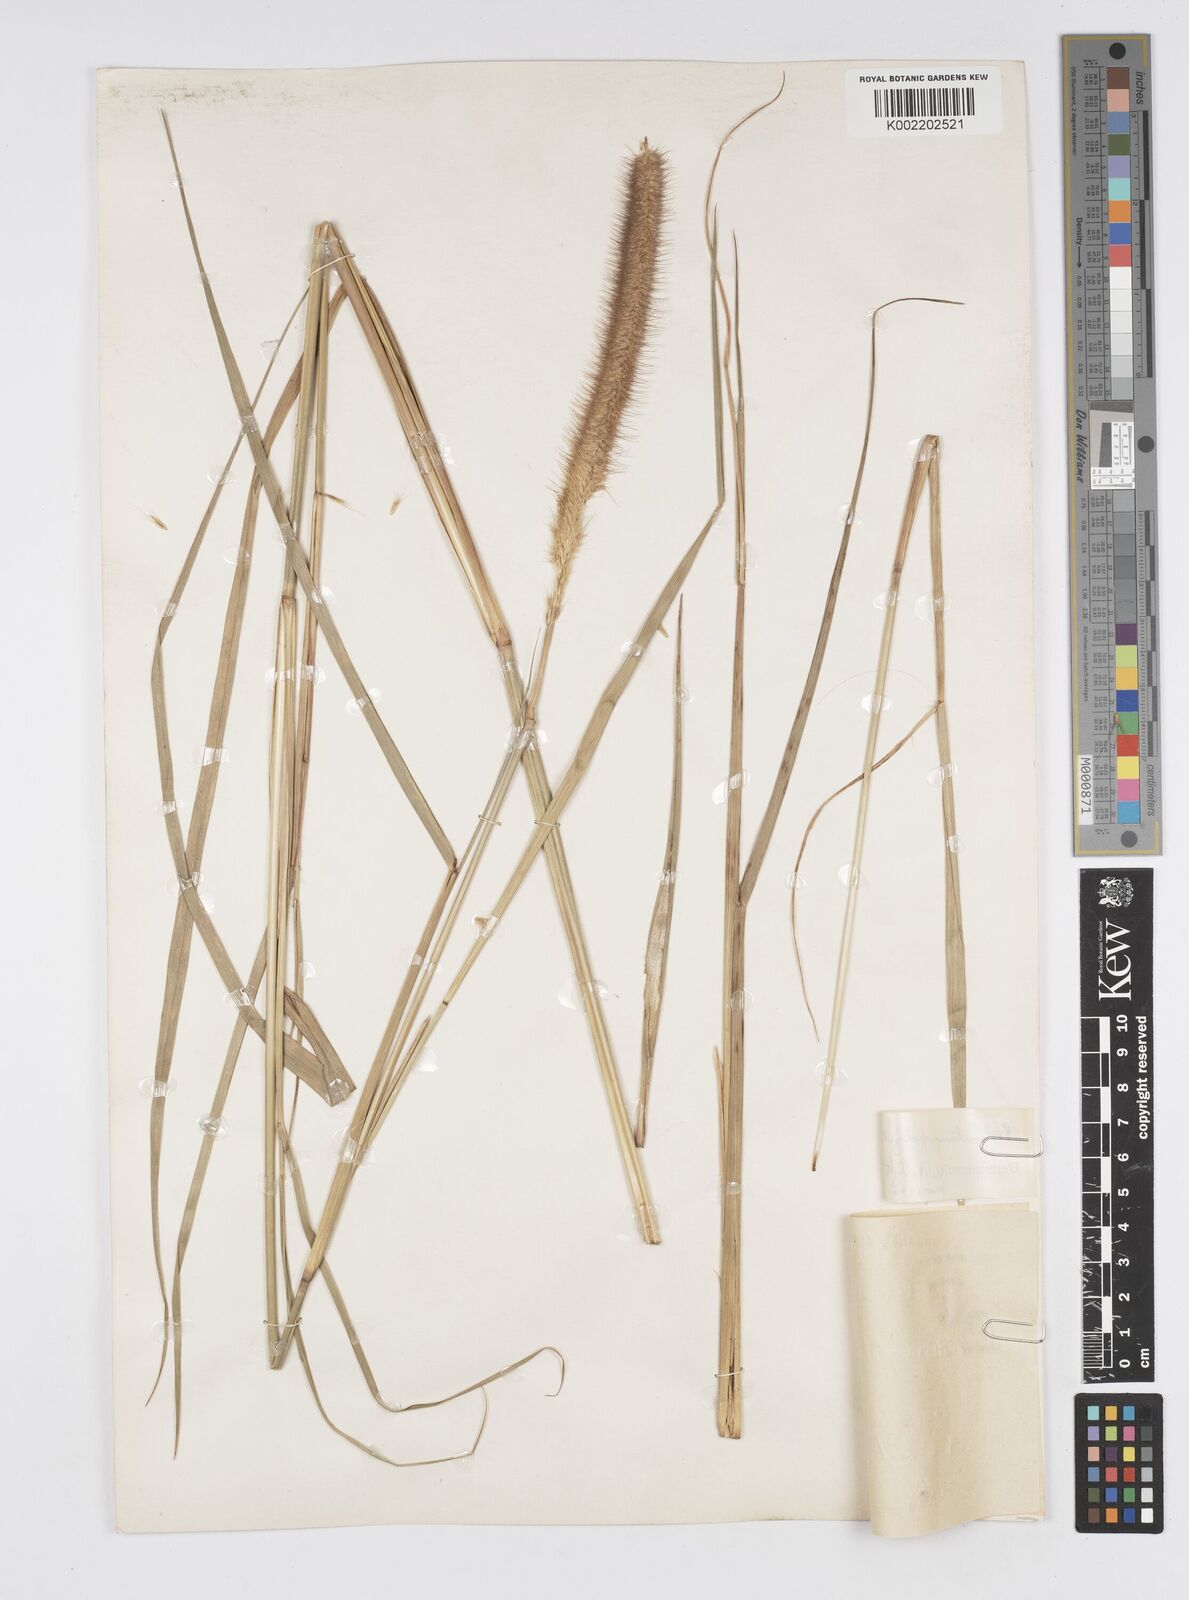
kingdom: Plantae
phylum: Tracheophyta
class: Liliopsida
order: Poales
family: Poaceae
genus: Cenchrus
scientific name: Cenchrus Pennisetum spec
